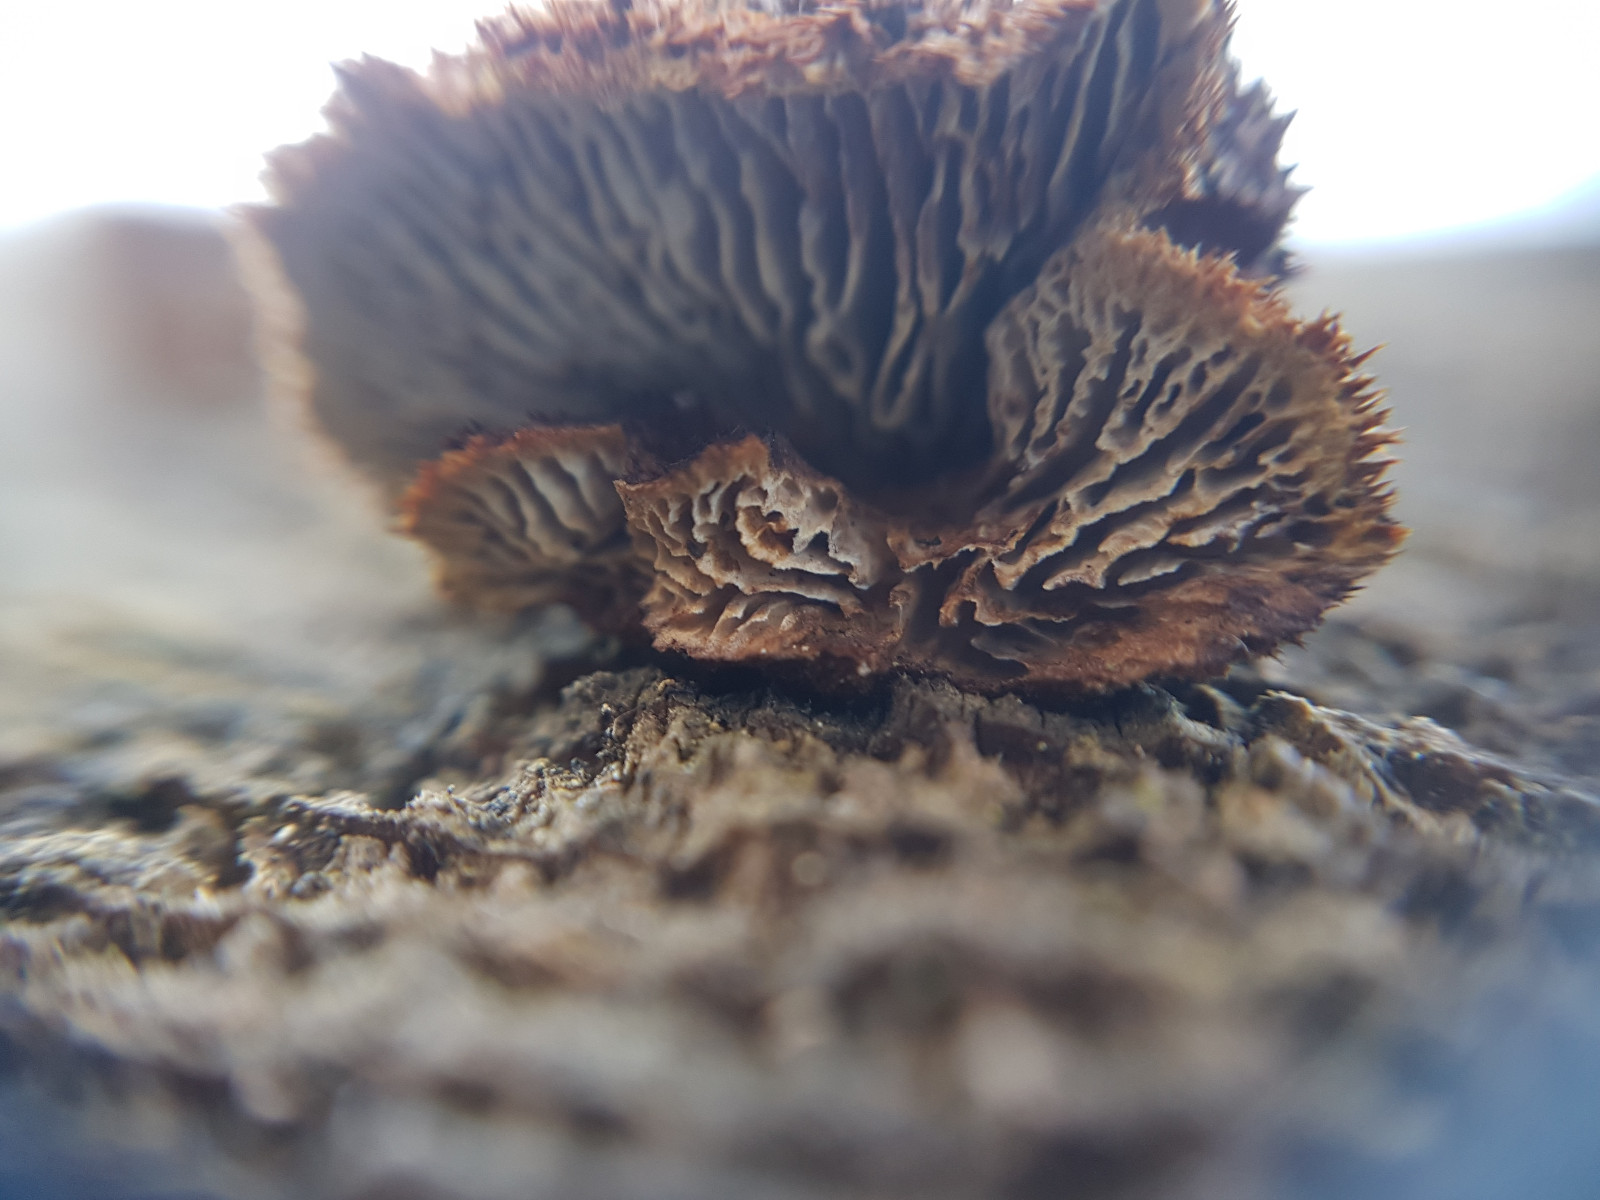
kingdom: Fungi
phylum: Basidiomycota
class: Agaricomycetes
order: Gloeophyllales
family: Gloeophyllaceae
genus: Gloeophyllum
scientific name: Gloeophyllum sepiarium
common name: fyrre-korkhat
